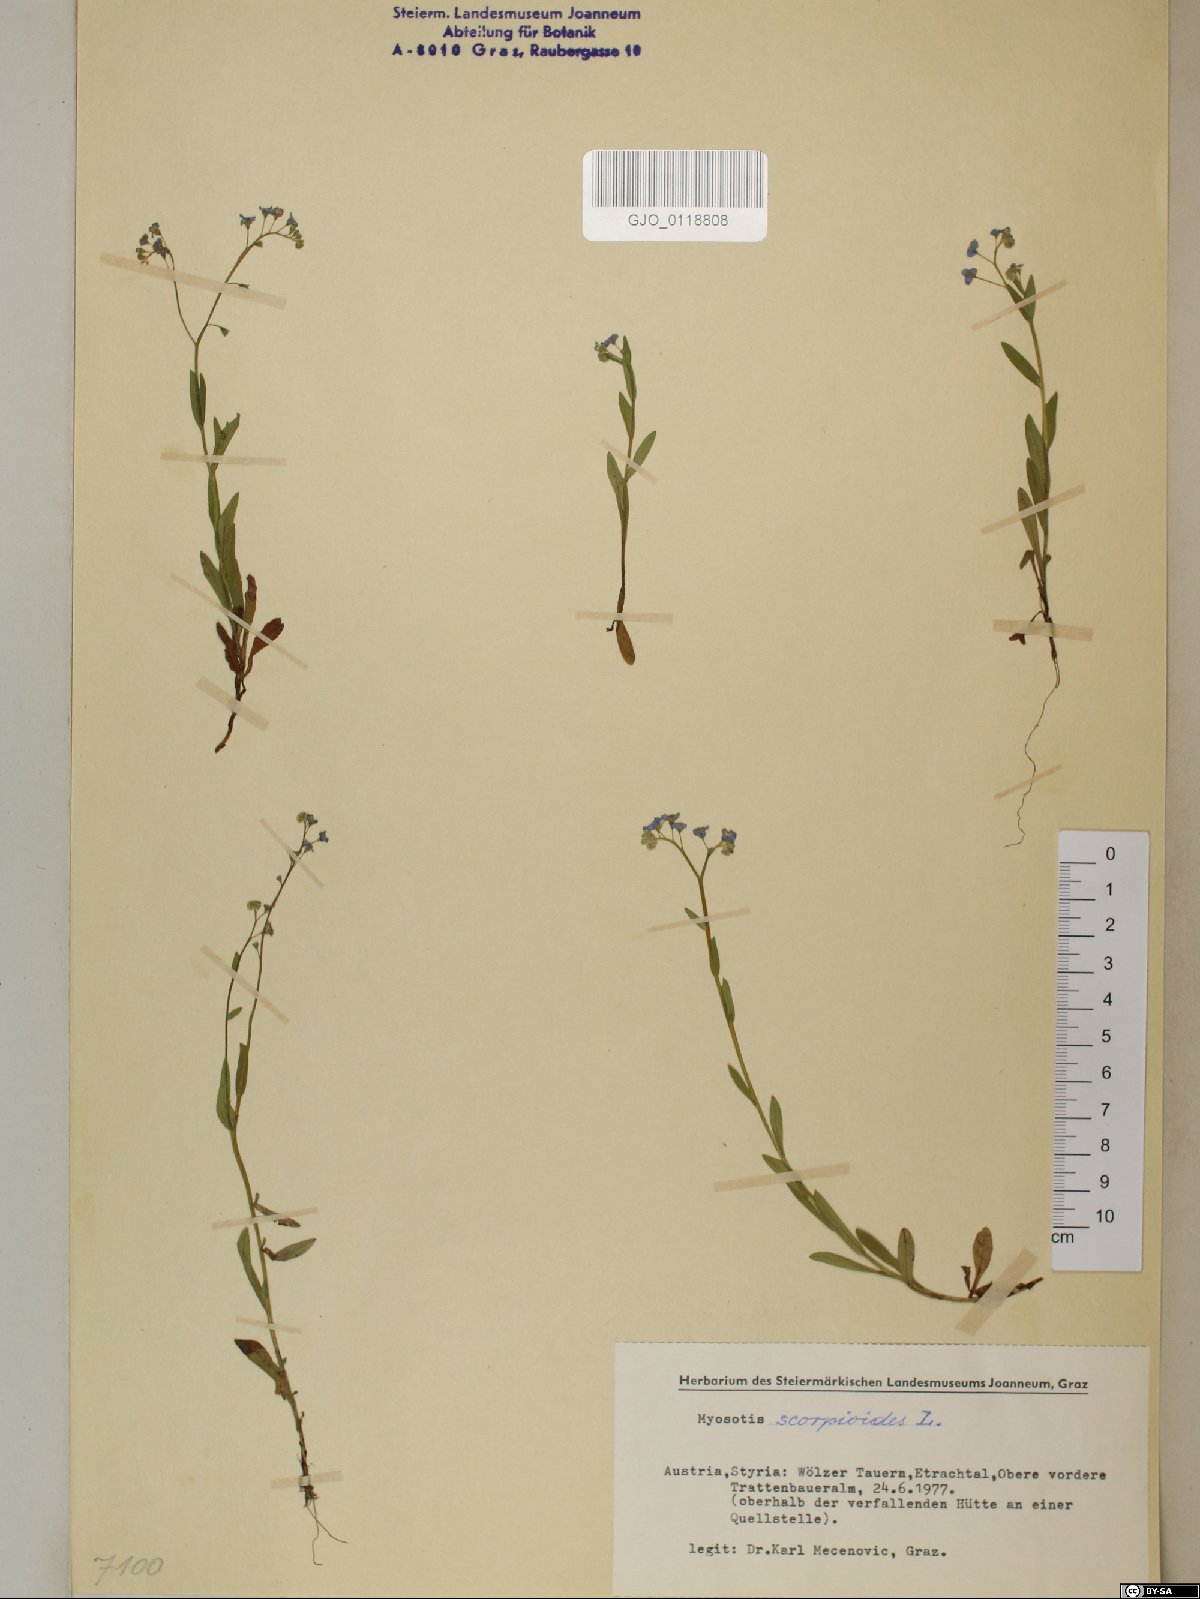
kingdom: Plantae
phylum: Tracheophyta
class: Magnoliopsida
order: Boraginales
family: Boraginaceae
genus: Myosotis
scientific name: Myosotis scorpioides
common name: Water forget-me-not
